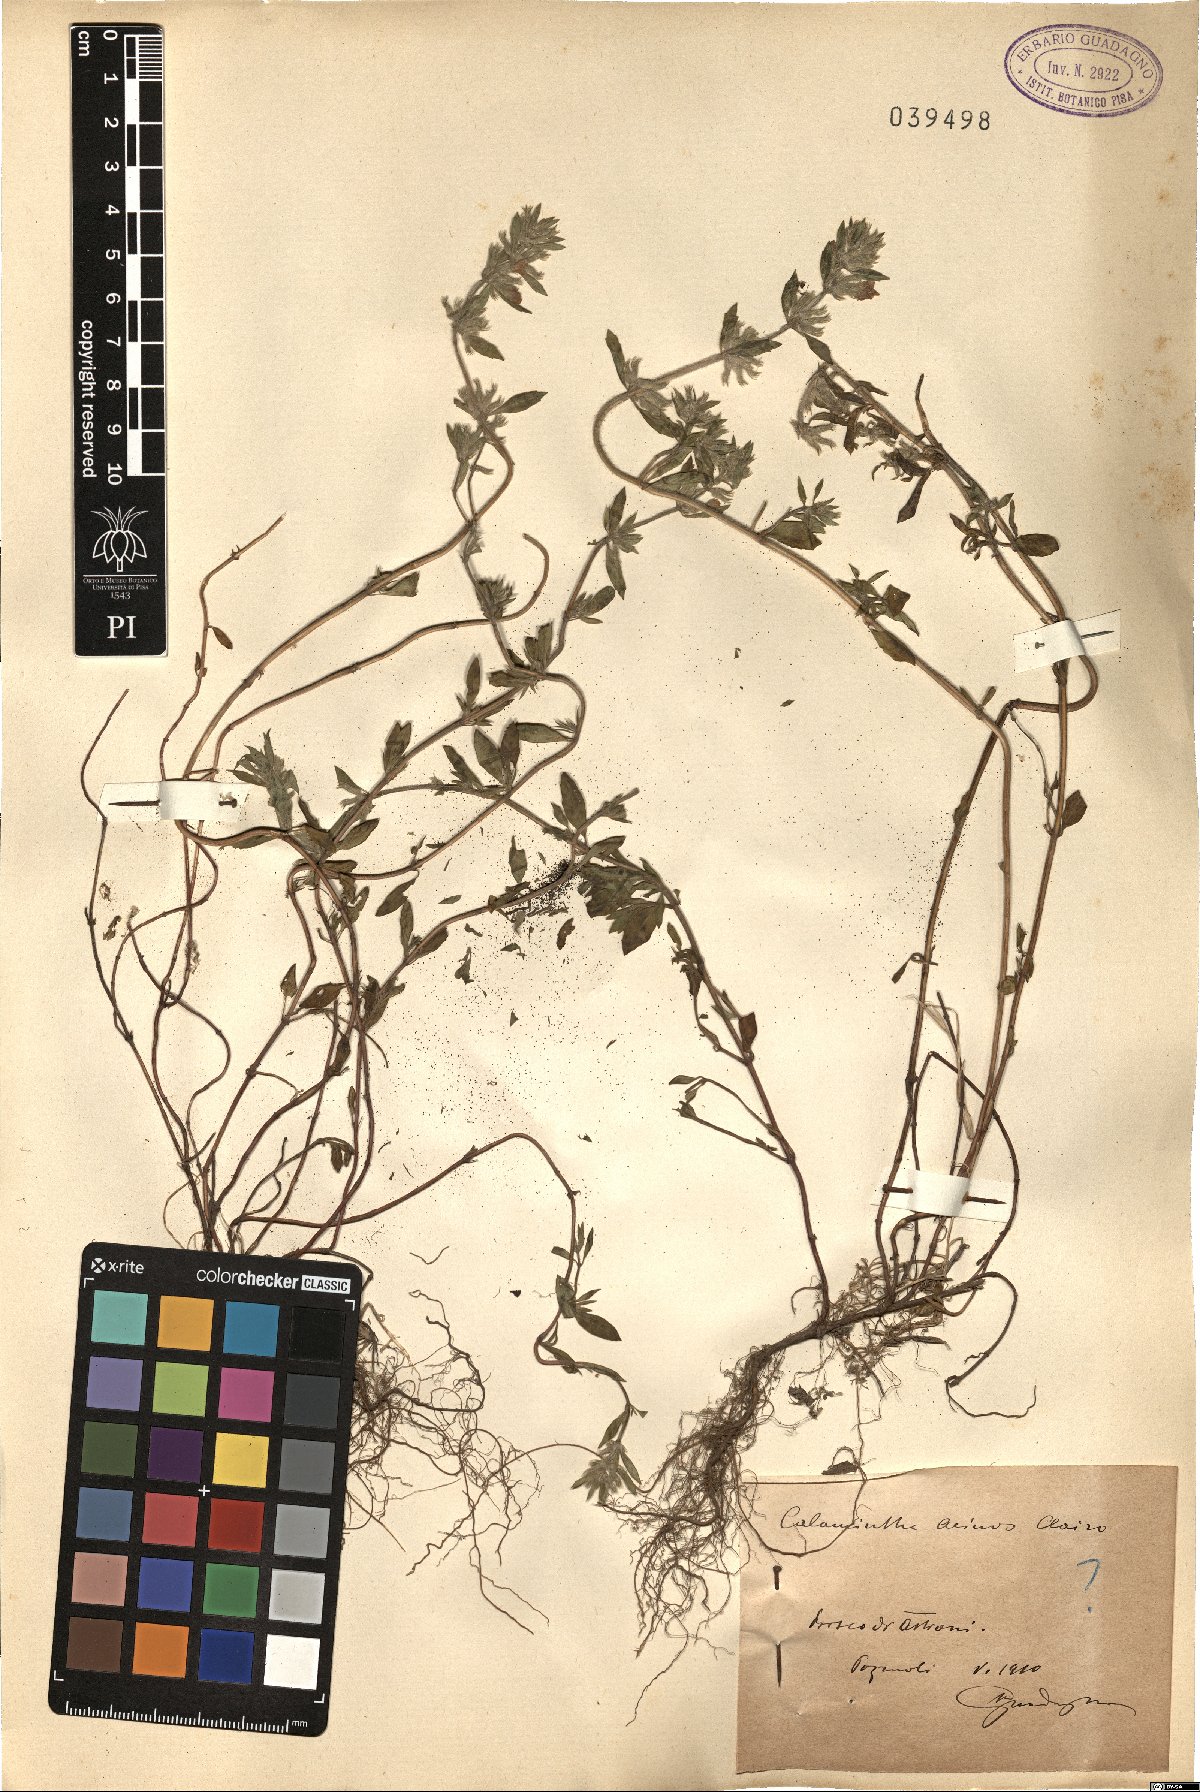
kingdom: Plantae
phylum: Tracheophyta
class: Magnoliopsida
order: Lamiales
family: Lamiaceae
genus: Clinopodium
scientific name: Clinopodium acinos
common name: Basil thyme
